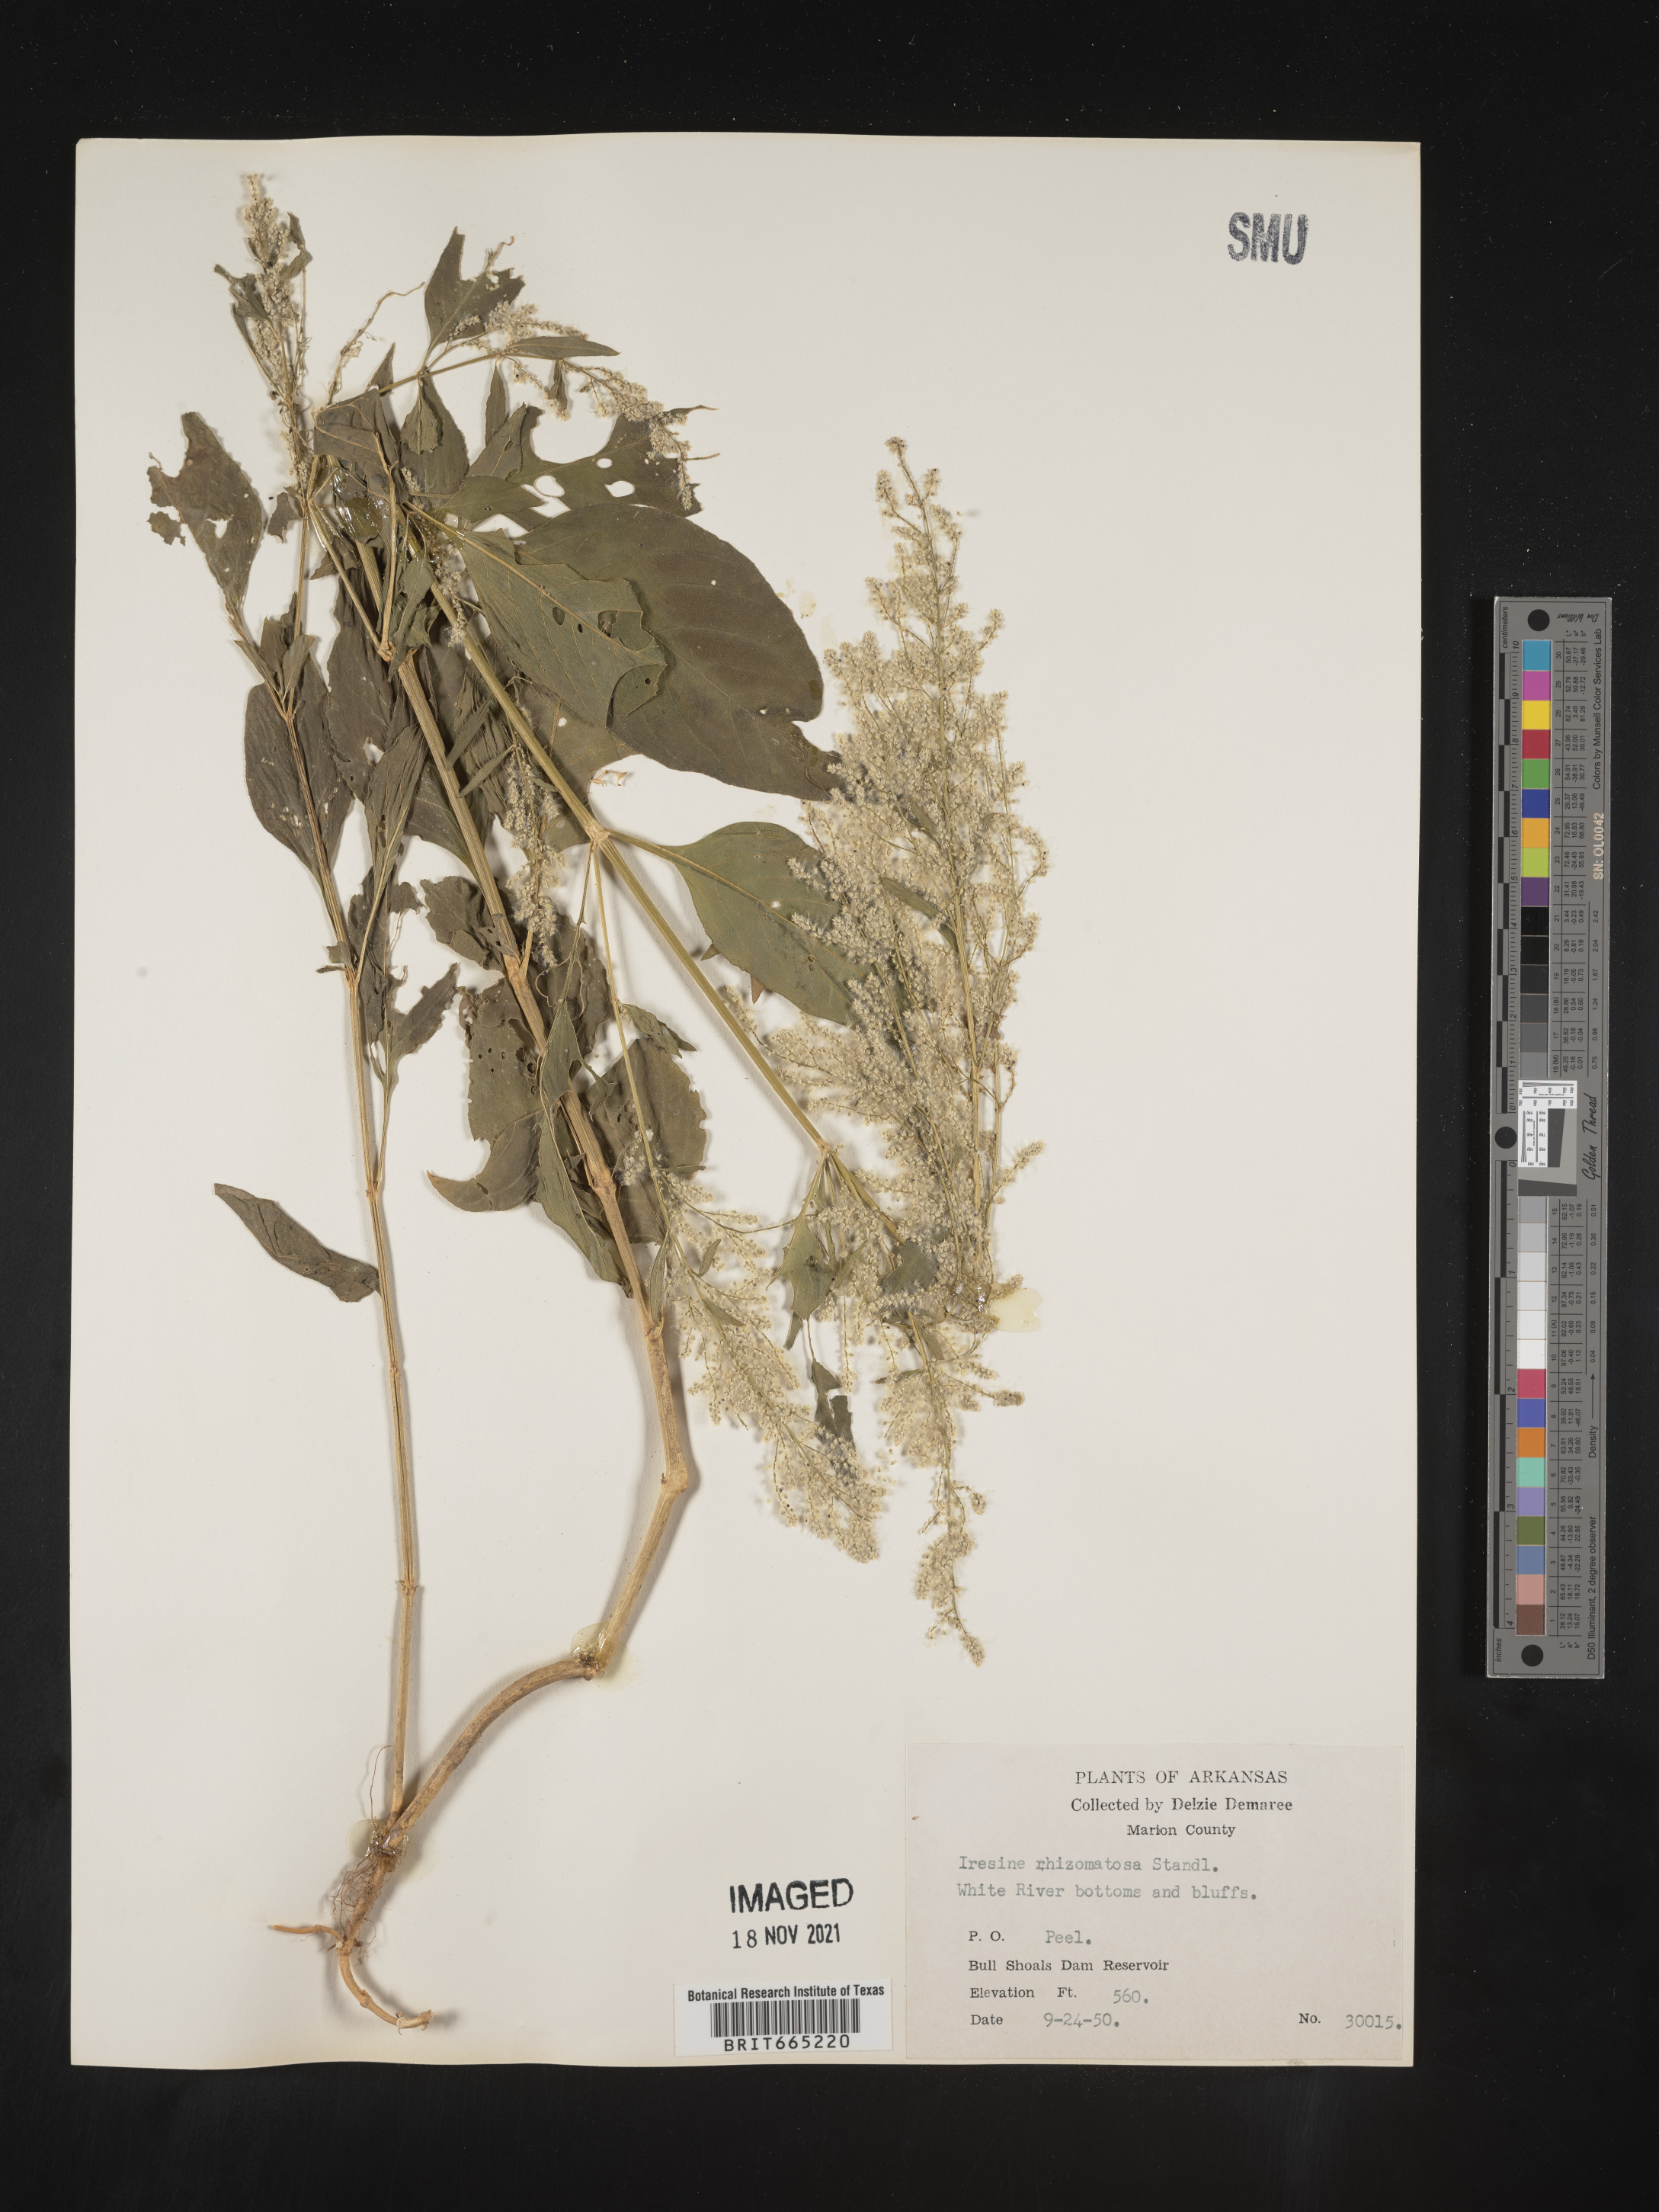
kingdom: Plantae
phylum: Tracheophyta
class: Magnoliopsida
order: Caryophyllales
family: Amaranthaceae
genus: Iresine
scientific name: Iresine rhizomatosa
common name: Juda's-bush
